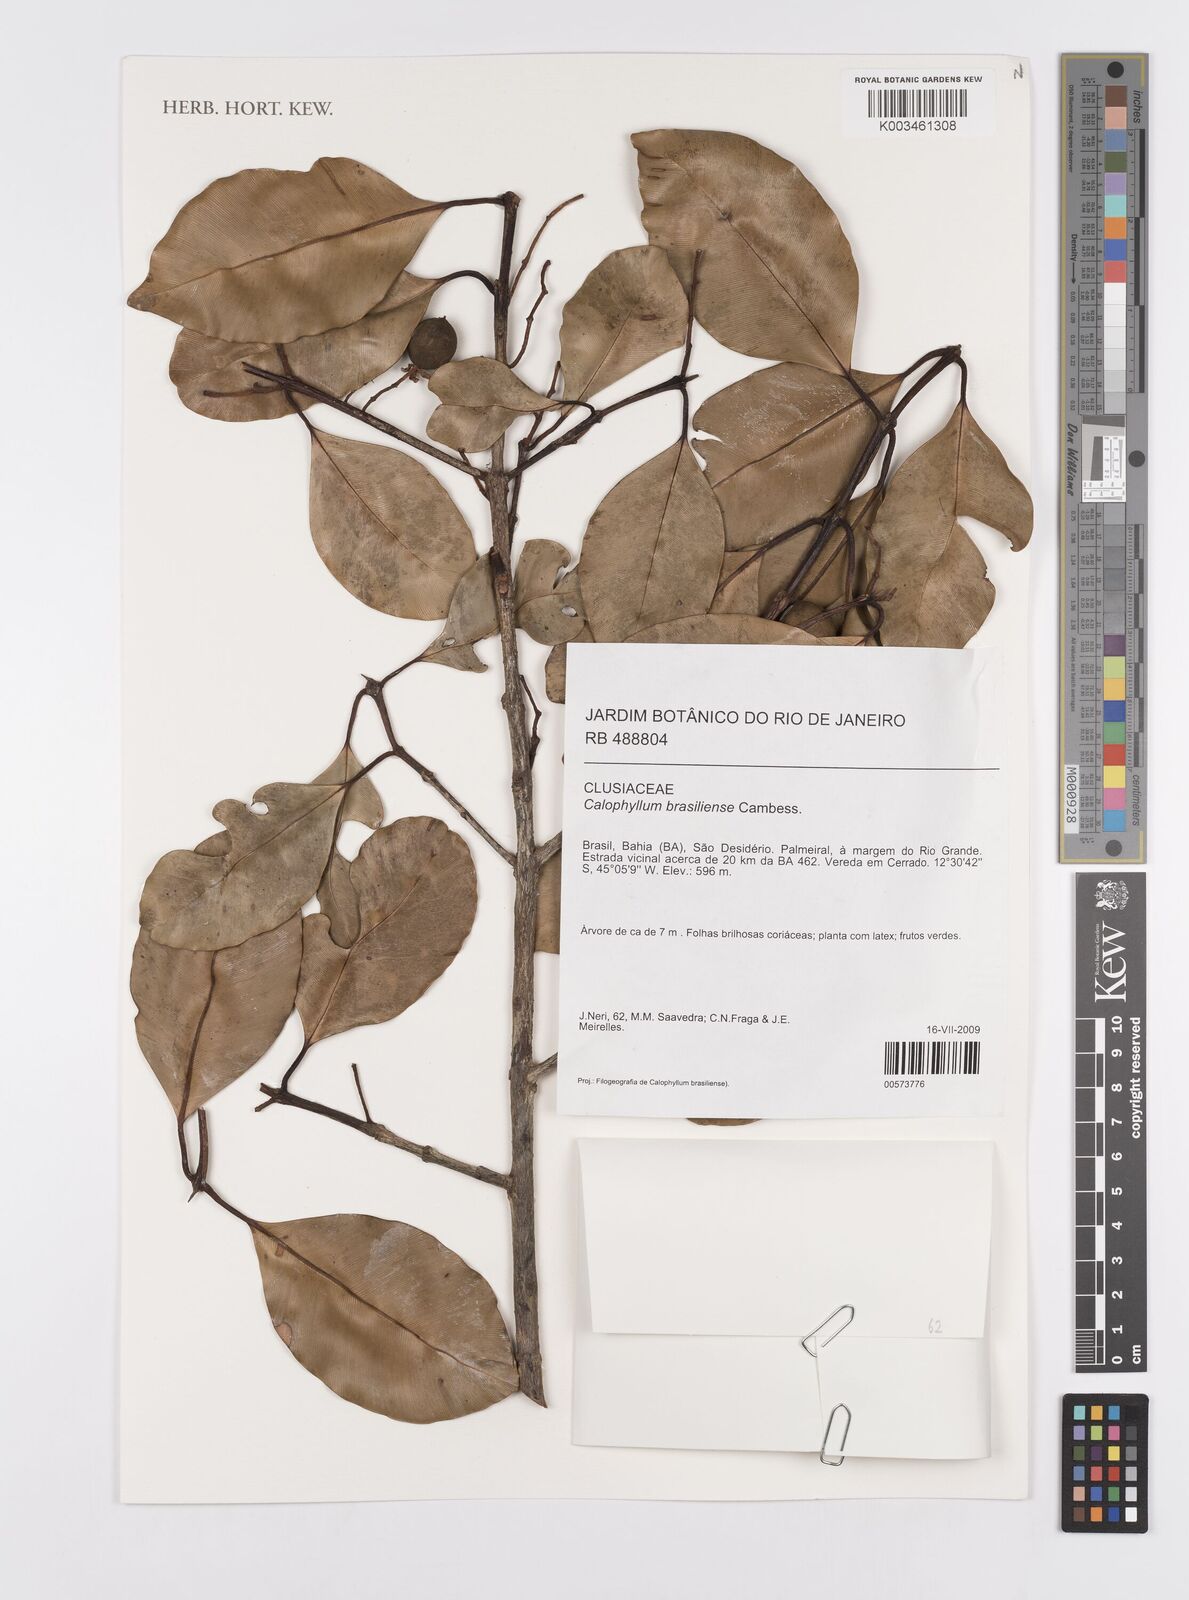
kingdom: Plantae
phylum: Tracheophyta
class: Magnoliopsida
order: Malpighiales
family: Calophyllaceae
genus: Calophyllum
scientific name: Calophyllum brasiliense
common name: Santa maria
